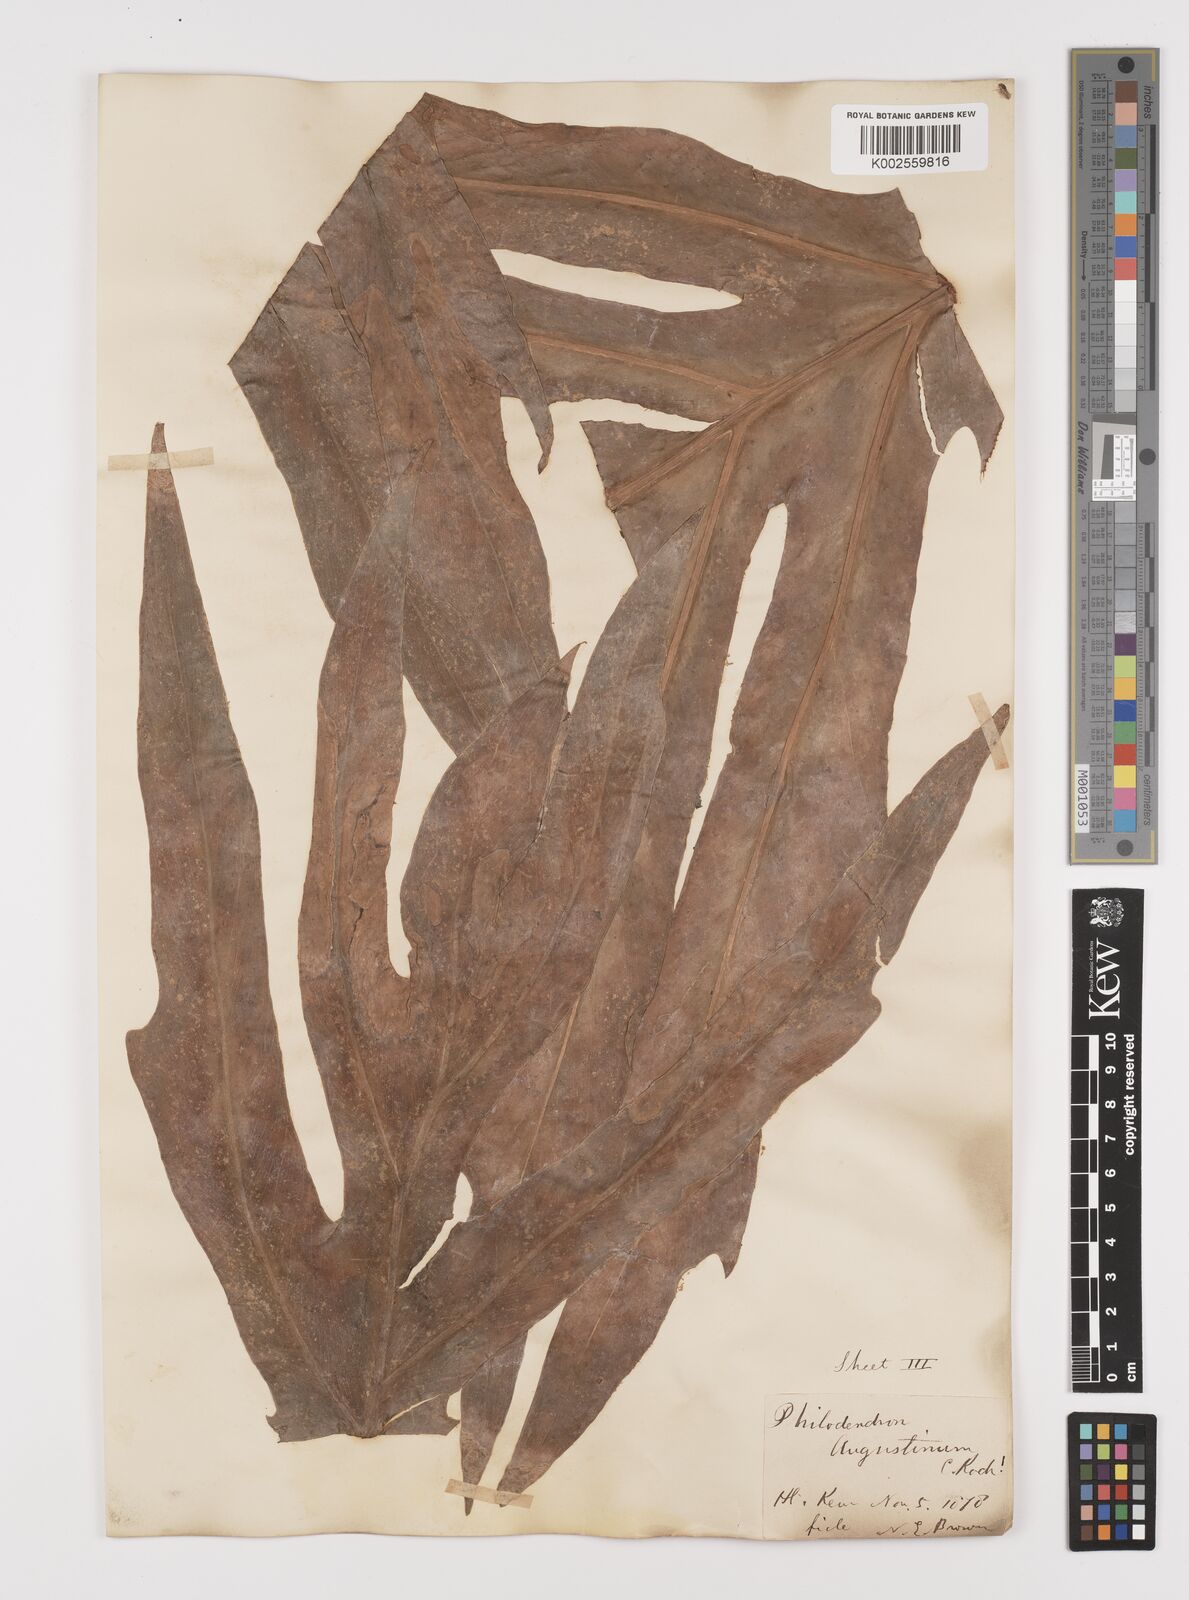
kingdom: Plantae
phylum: Tracheophyta
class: Liliopsida
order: Alismatales
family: Araceae
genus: Philodendron
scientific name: Philodendron radiatum
